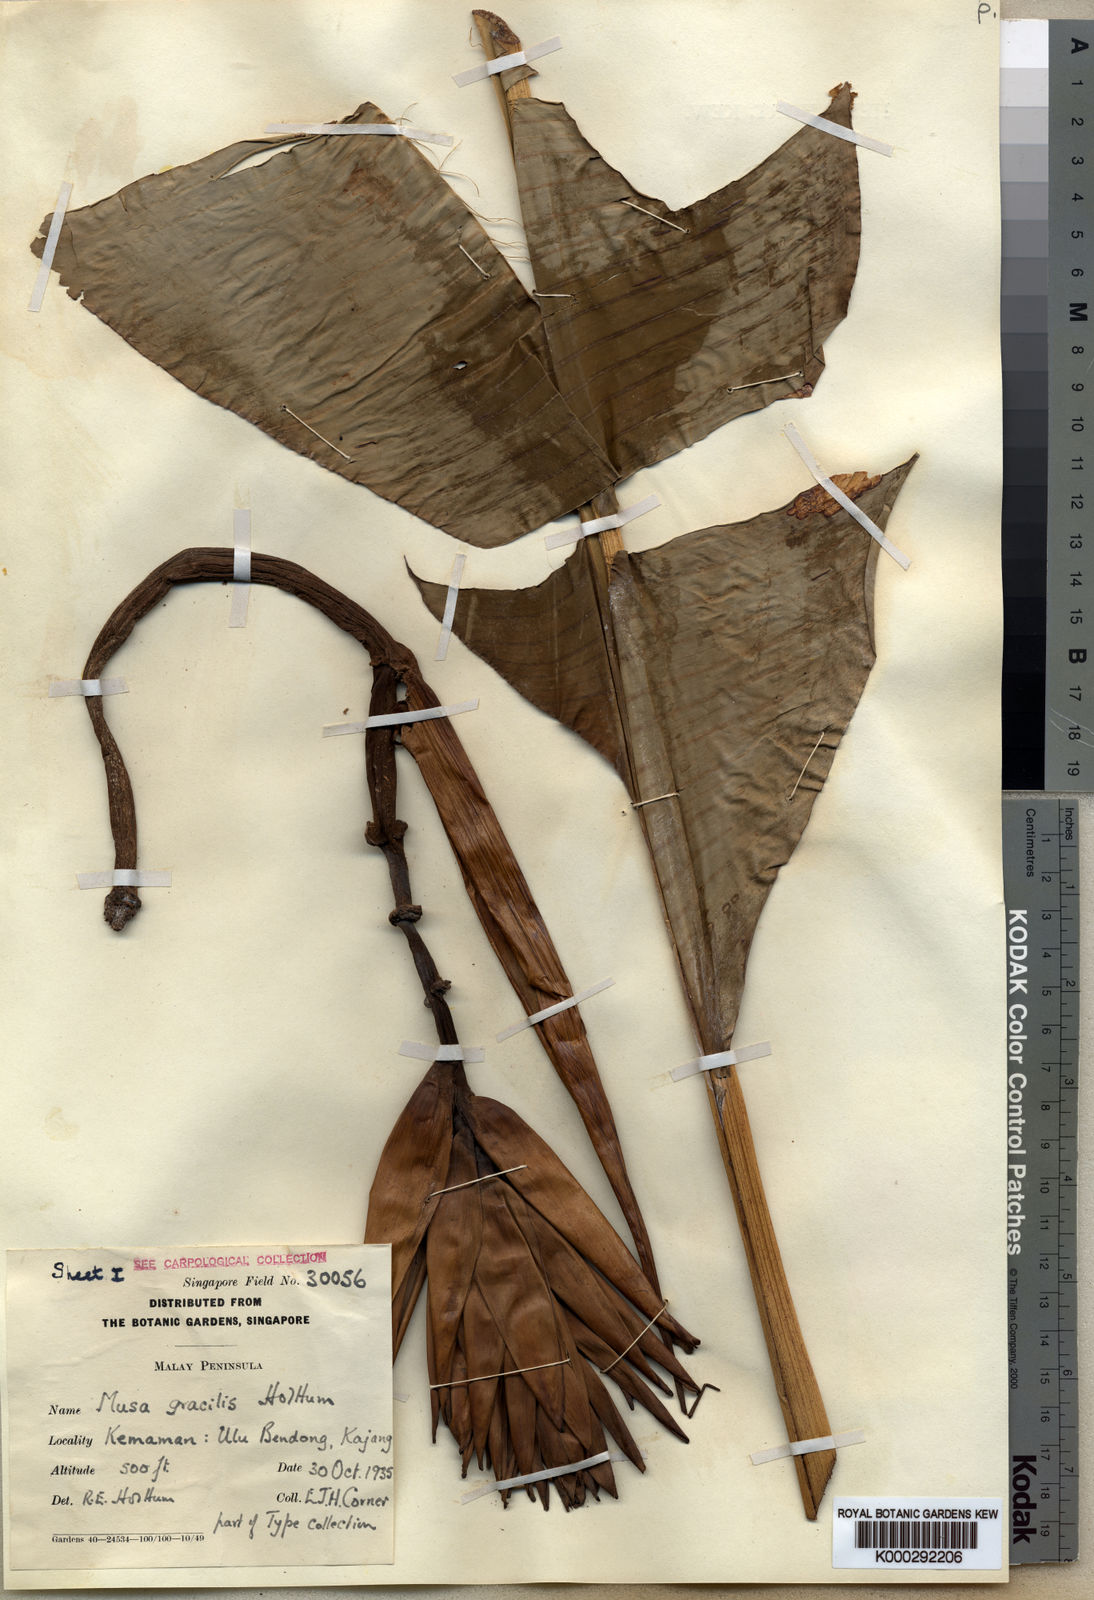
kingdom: Plantae
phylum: Tracheophyta
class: Liliopsida
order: Zingiberales
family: Musaceae
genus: Musa
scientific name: Musa gracilis
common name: Johore banana
